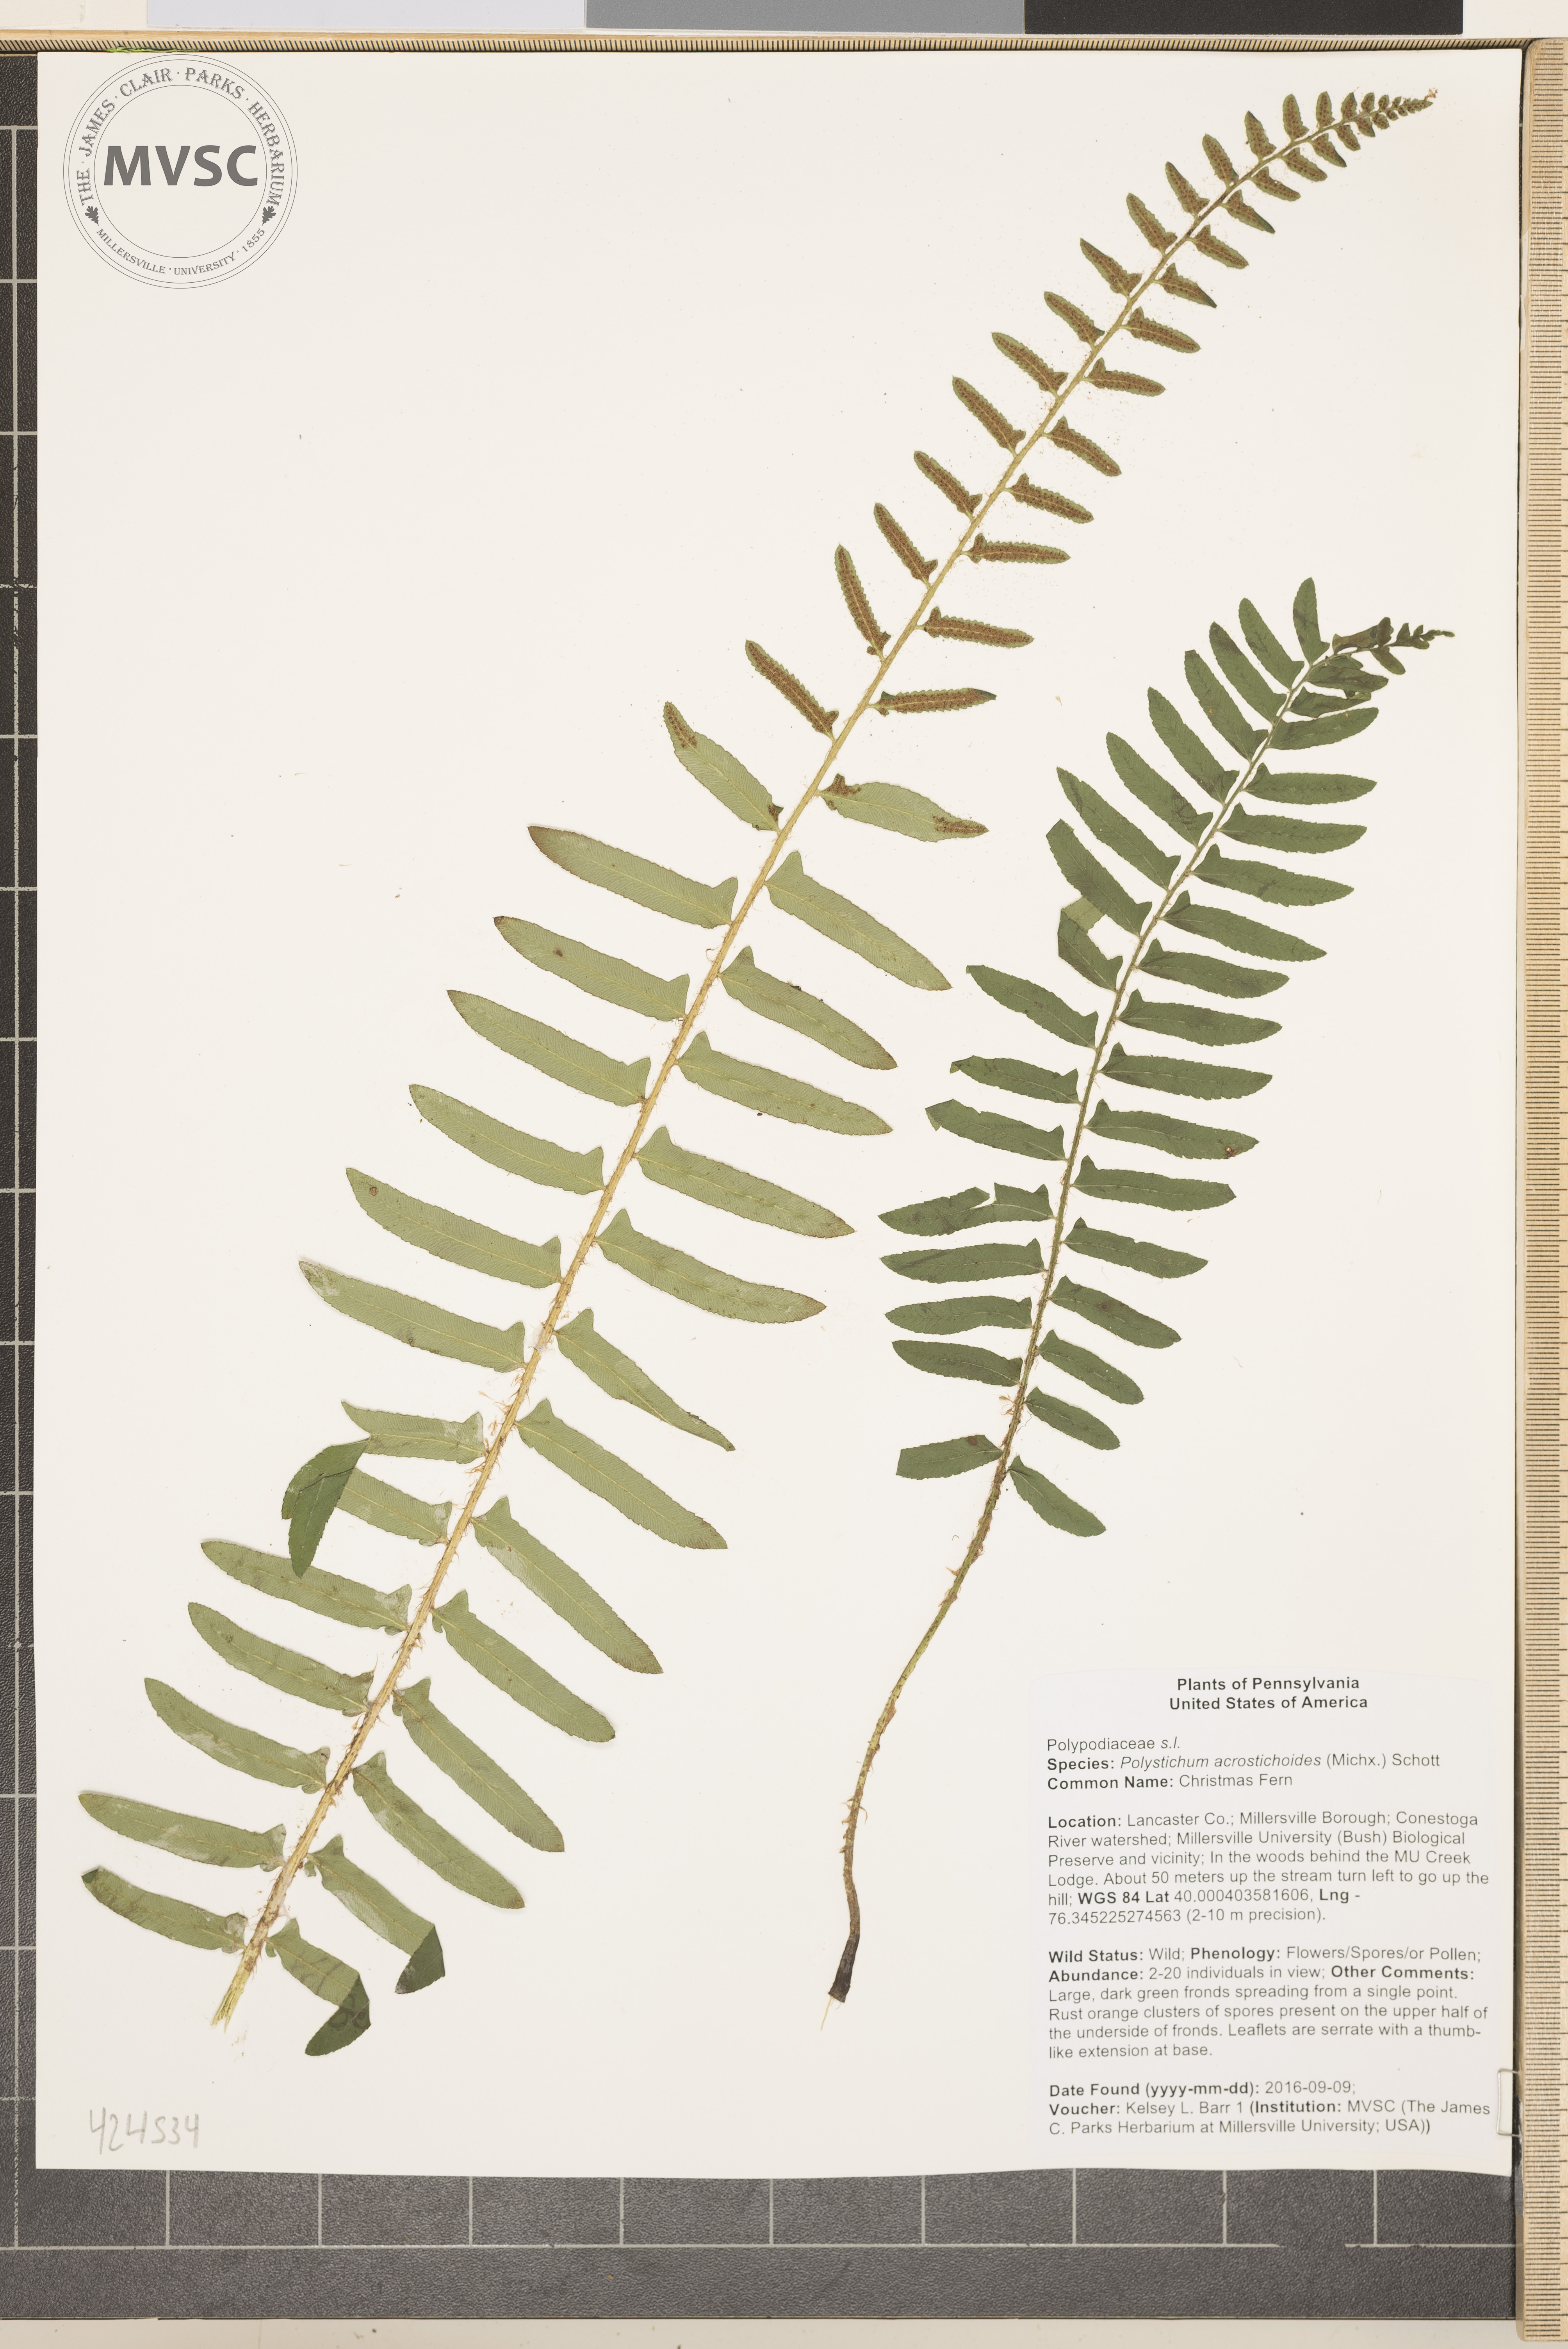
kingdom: Plantae
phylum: Tracheophyta
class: Polypodiopsida
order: Polypodiales
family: Dryopteridaceae
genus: Polystichum
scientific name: Polystichum acrostichoides
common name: Christmas Fern
